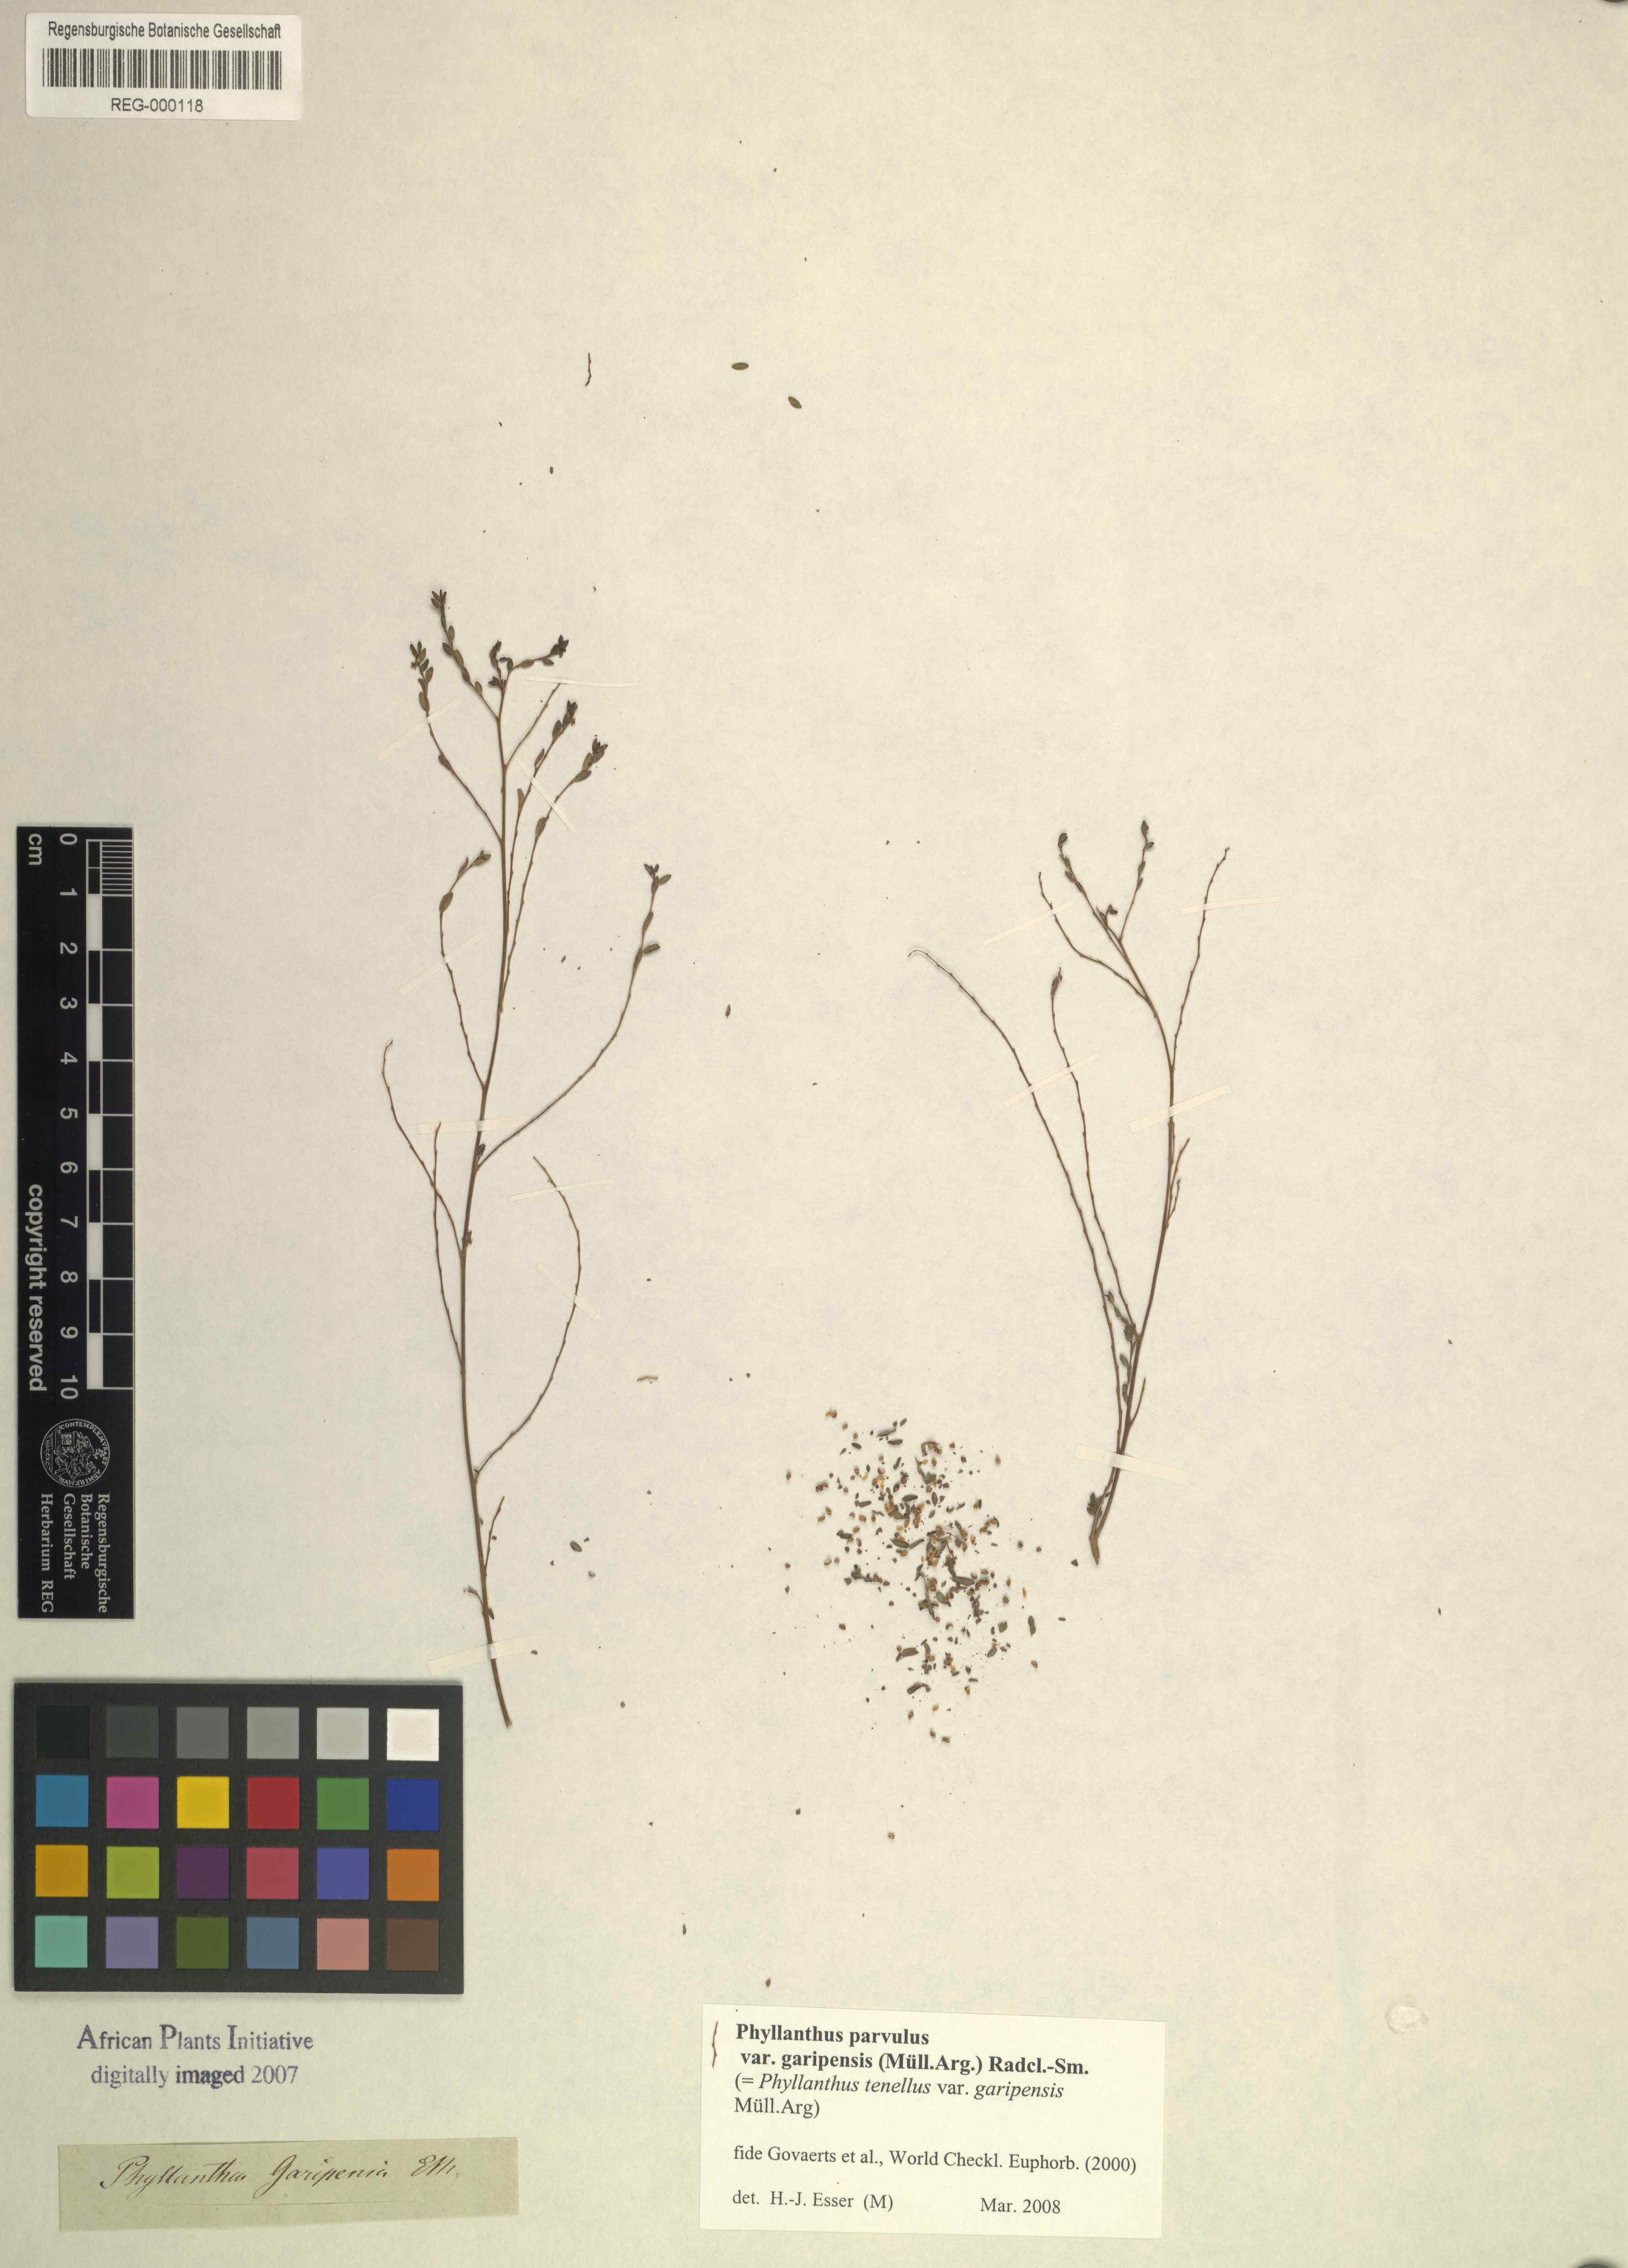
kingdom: Plantae
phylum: Tracheophyta
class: Magnoliopsida
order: Malpighiales
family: Phyllanthaceae
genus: Phyllanthus
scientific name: Phyllanthus parvulus
